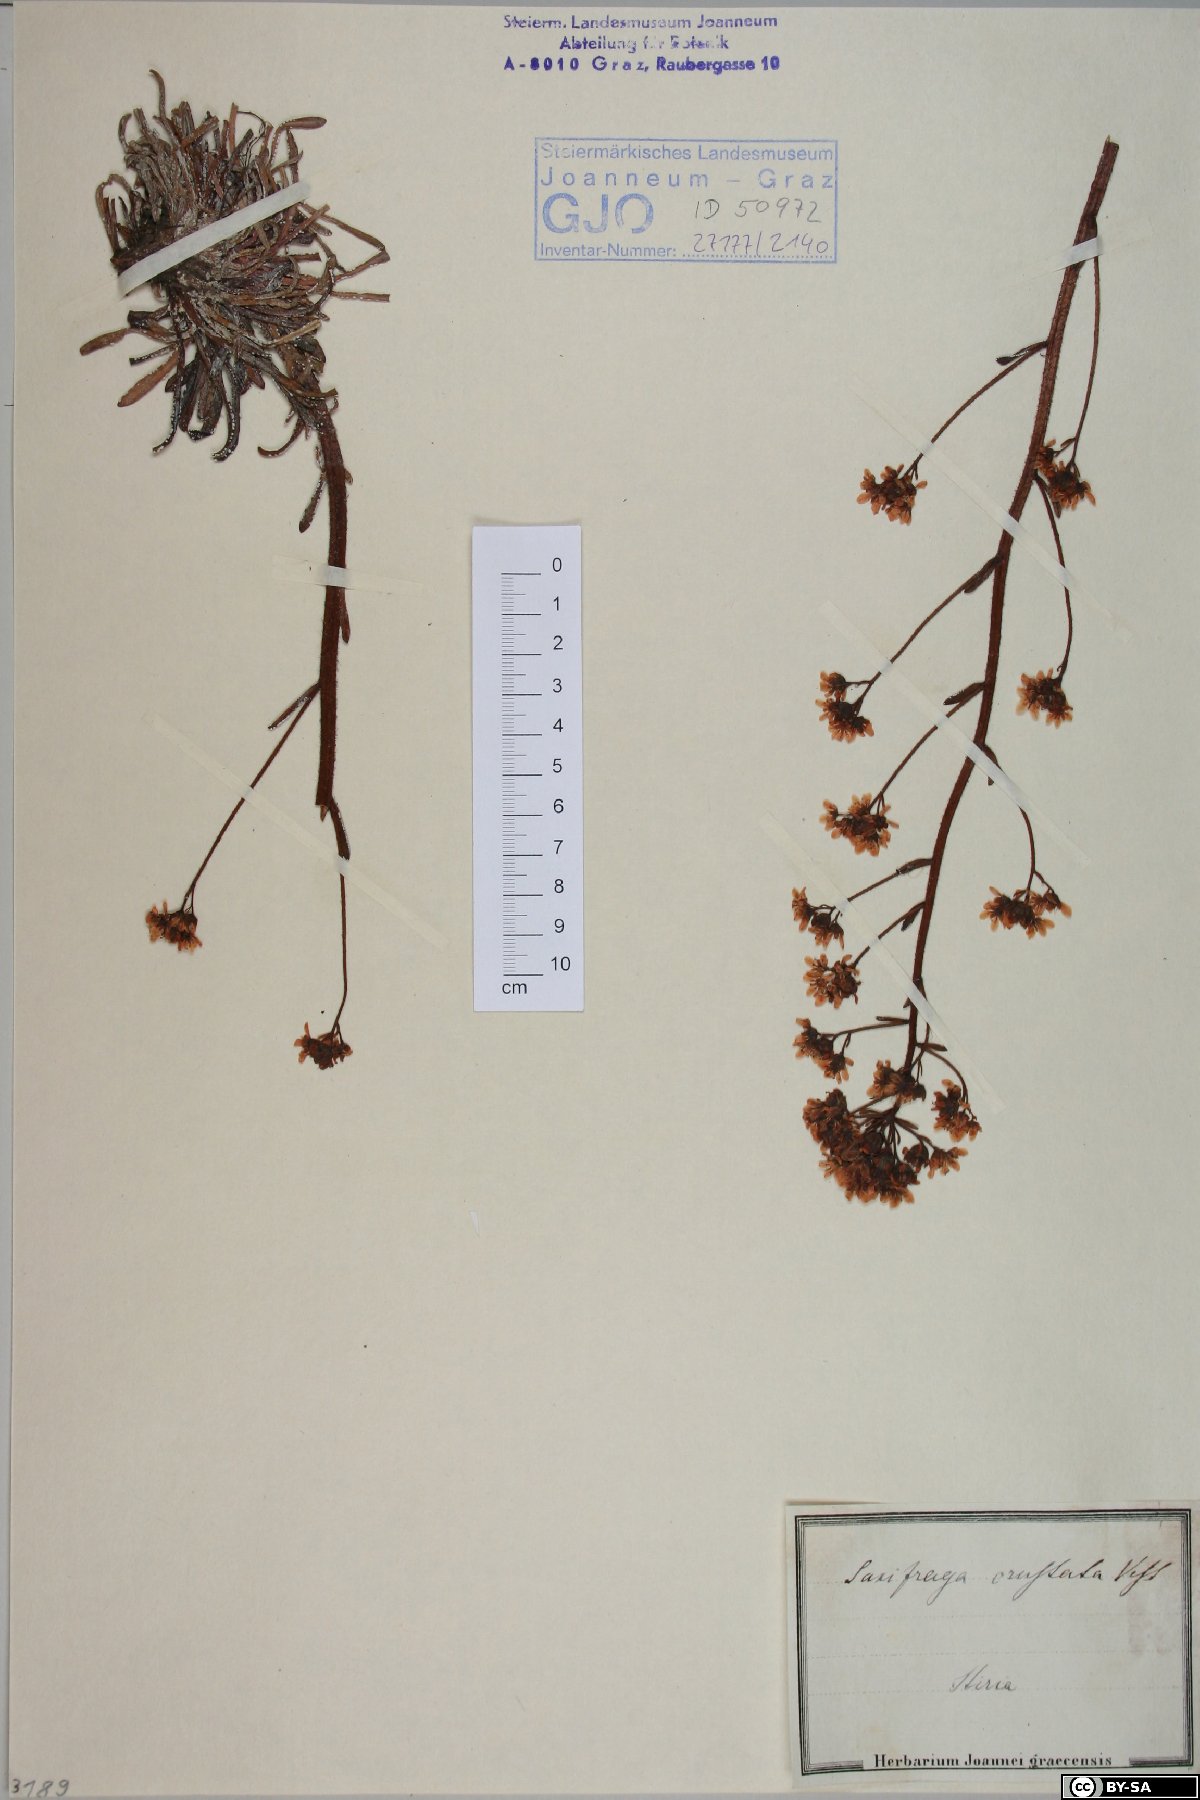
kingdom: Plantae
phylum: Tracheophyta
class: Magnoliopsida
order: Saxifragales
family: Saxifragaceae
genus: Saxifraga
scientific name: Saxifraga crustata
